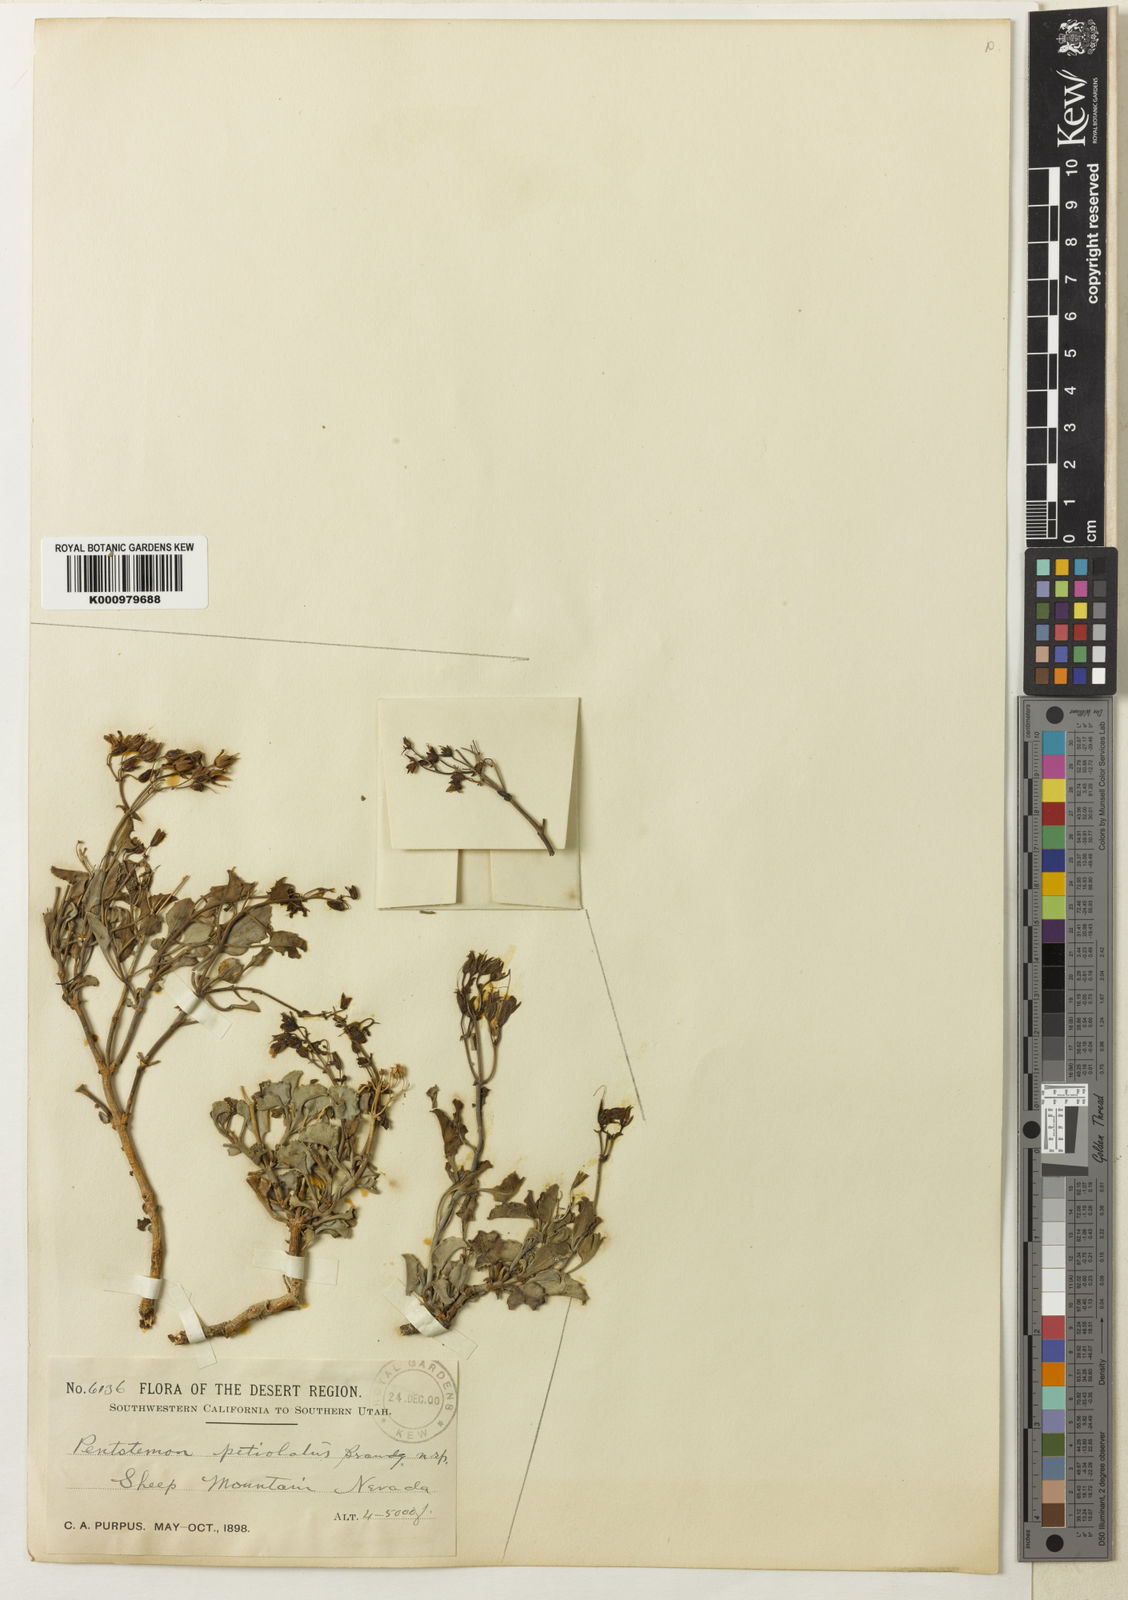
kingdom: Plantae
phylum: Tracheophyta
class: Magnoliopsida
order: Lamiales
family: Plantaginaceae
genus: Penstemon
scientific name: Penstemon petiolatus
